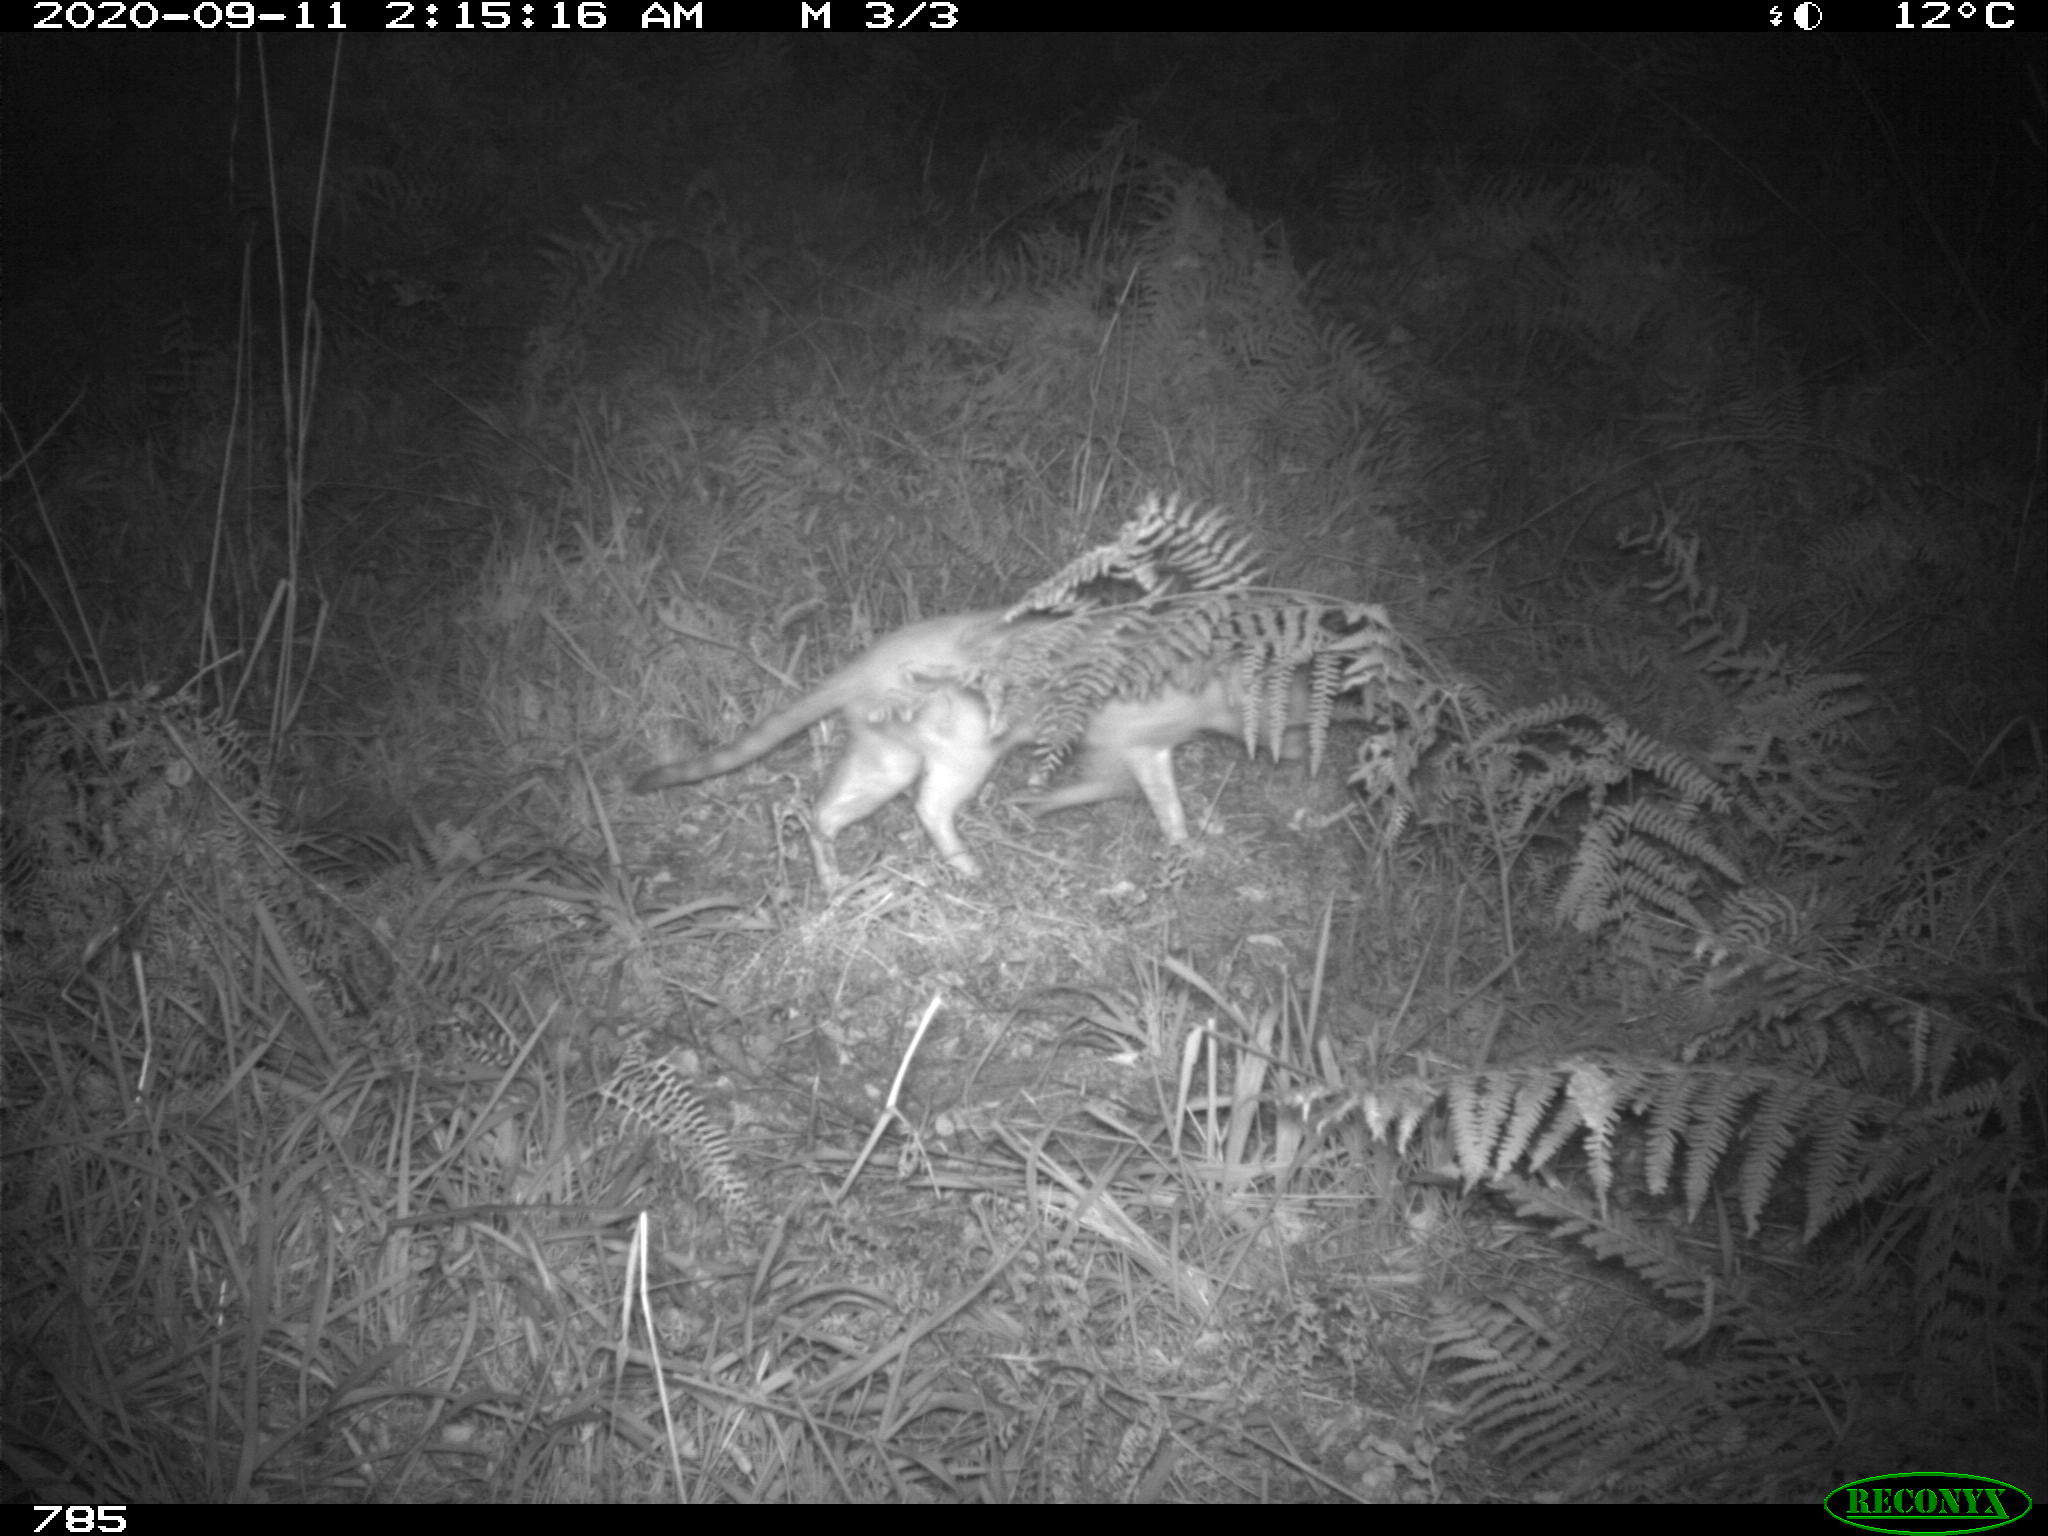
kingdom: Animalia
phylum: Chordata
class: Mammalia
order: Carnivora
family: Felidae
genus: Felis
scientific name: Felis catus
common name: Domestic cat
